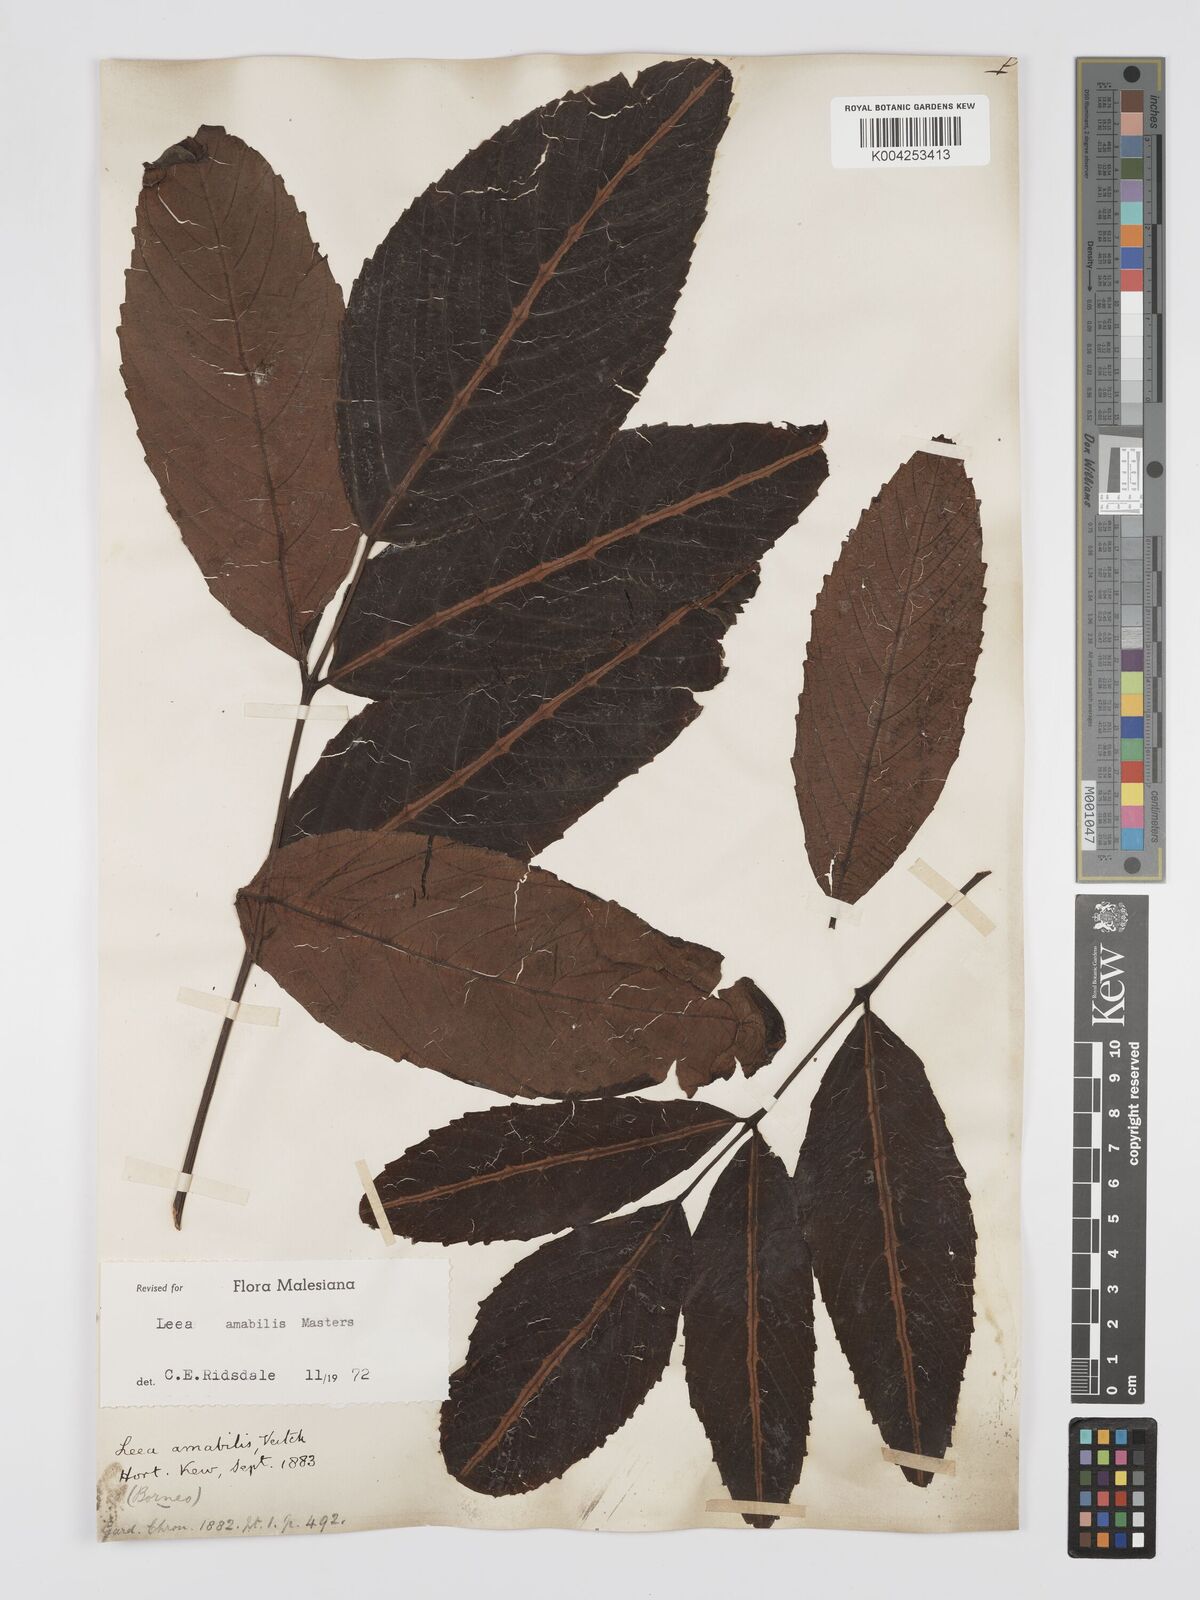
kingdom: Plantae
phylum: Tracheophyta
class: Magnoliopsida
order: Vitales
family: Vitaceae
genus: Leea
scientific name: Leea amabilis
